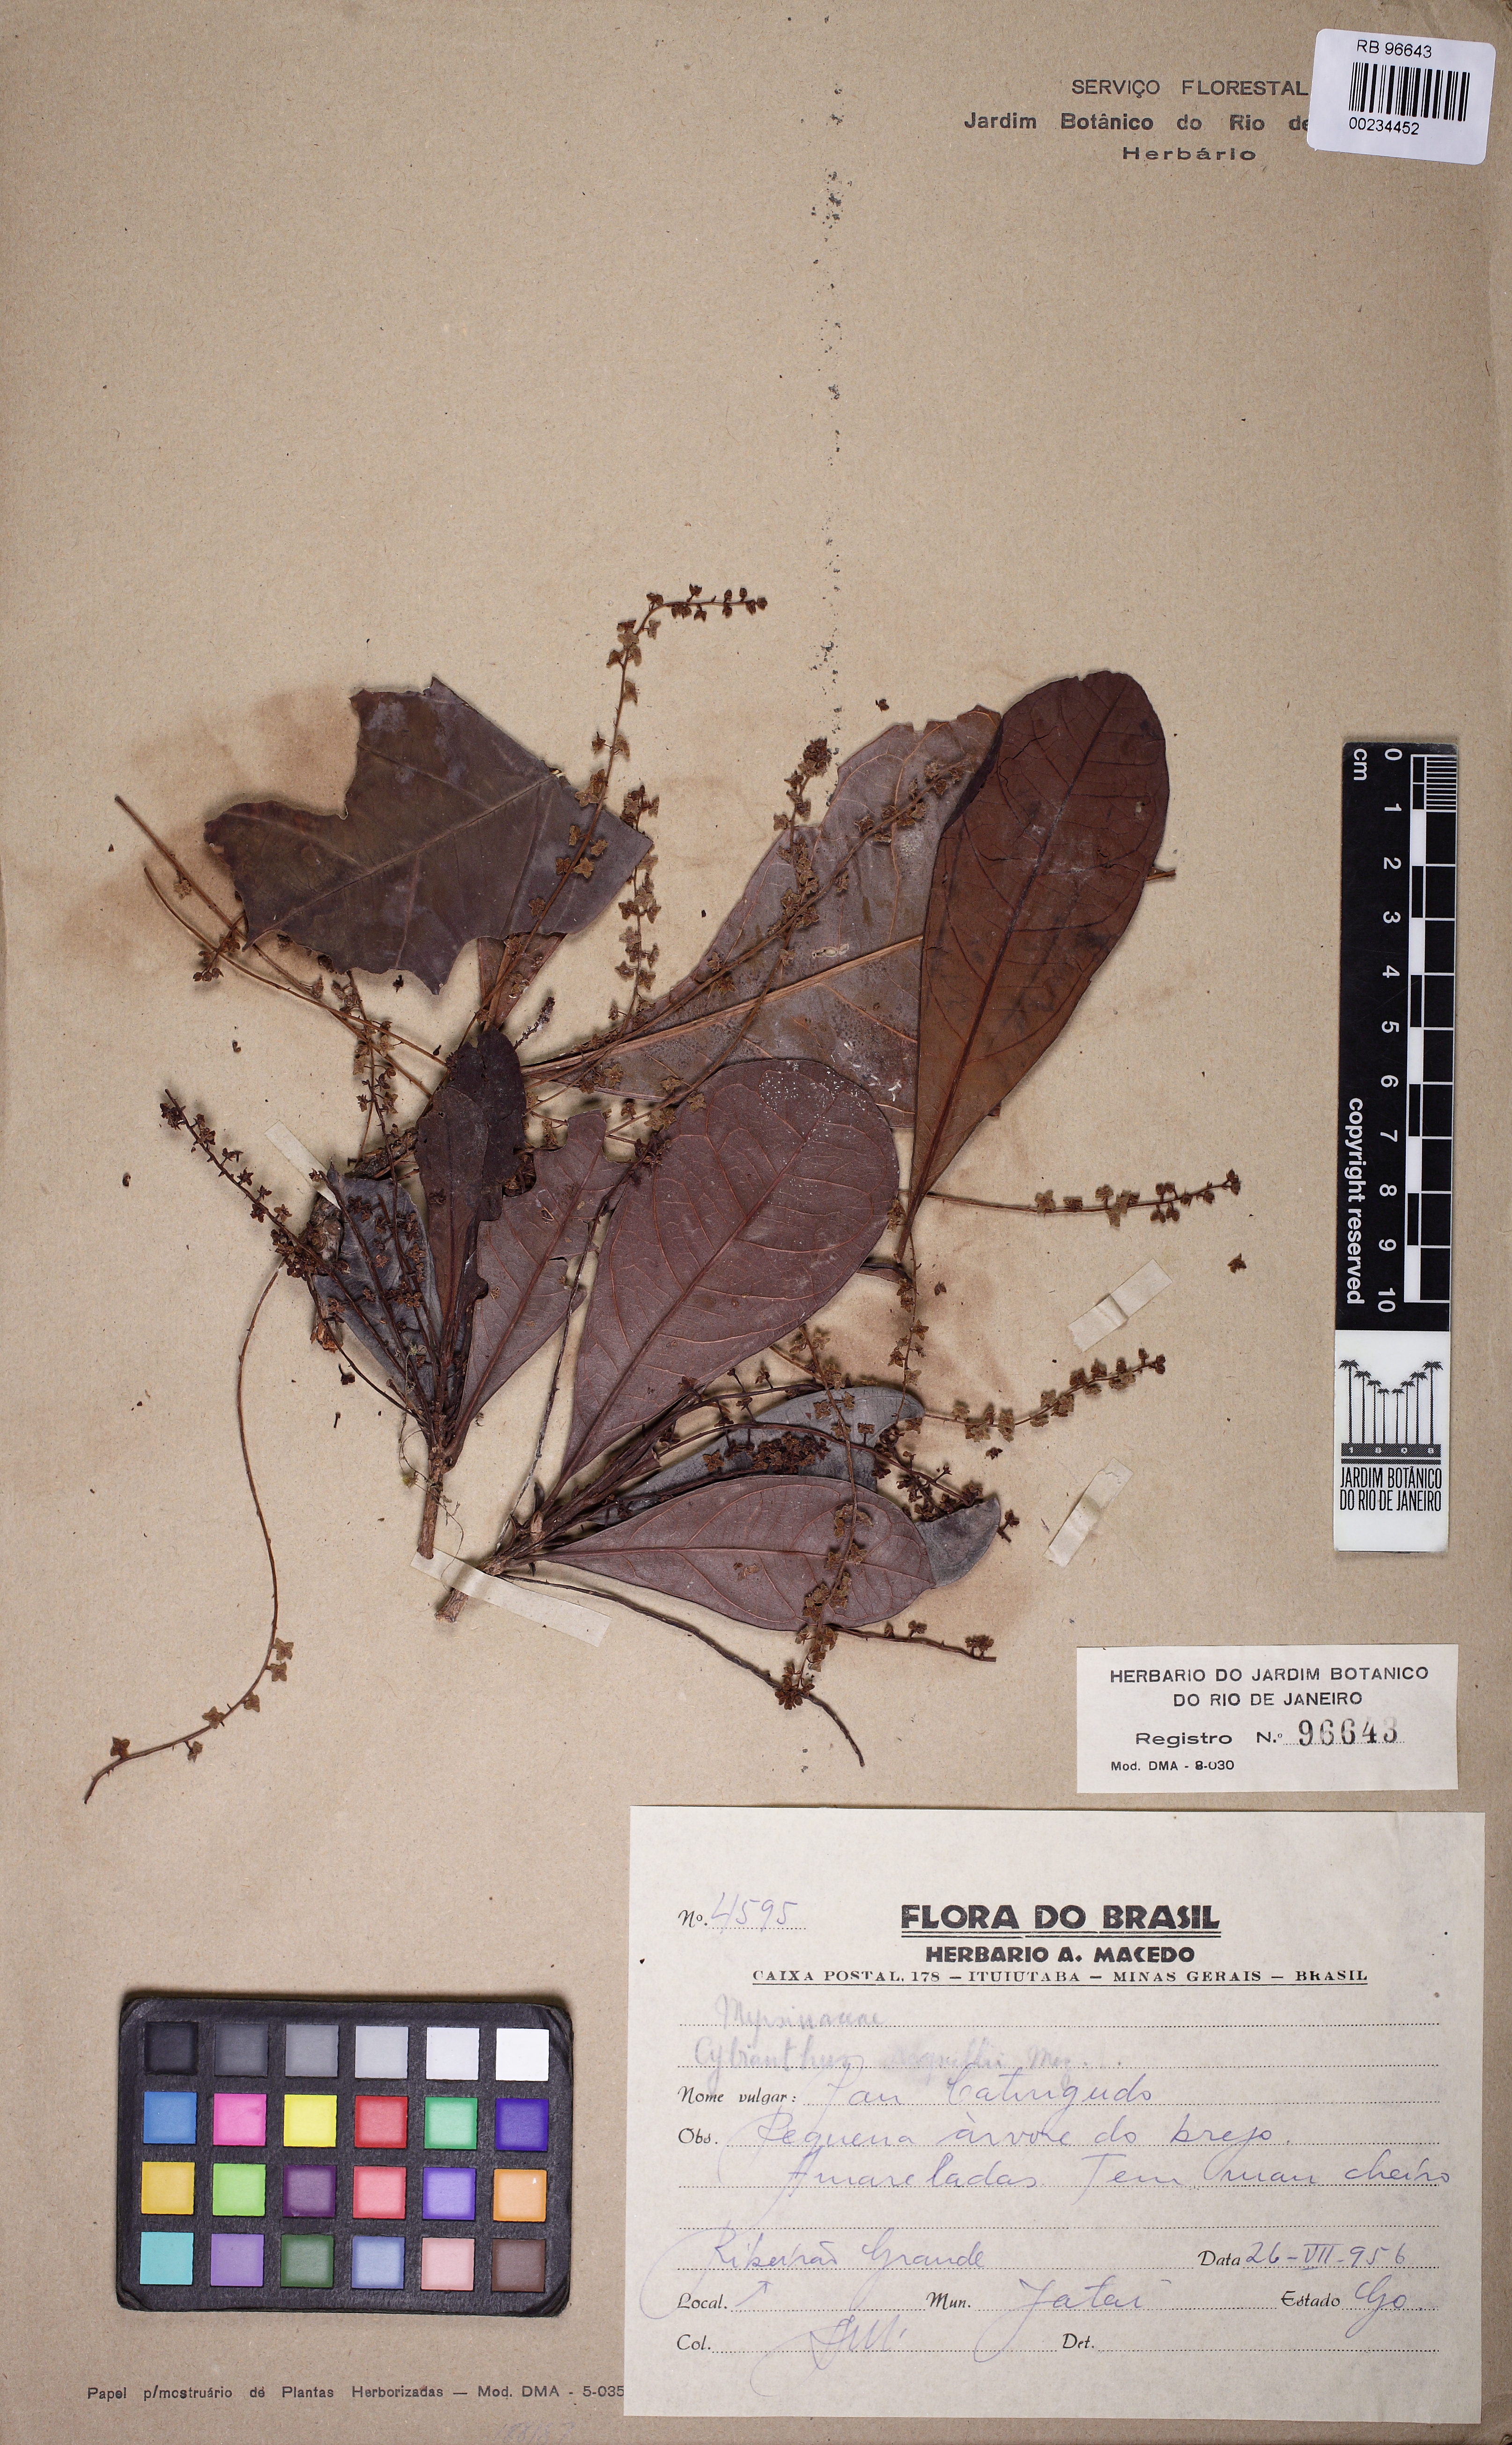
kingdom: Plantae
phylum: Tracheophyta
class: Magnoliopsida
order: Ericales
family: Primulaceae
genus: Cybianthus
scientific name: Cybianthus regnellii
